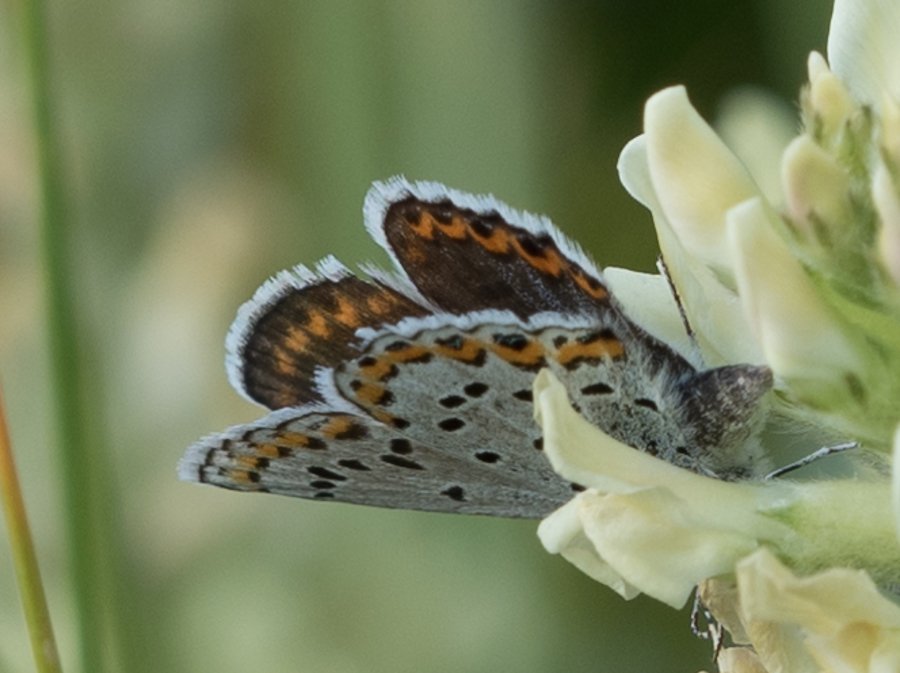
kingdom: Animalia
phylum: Arthropoda
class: Insecta
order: Lepidoptera
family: Lycaenidae
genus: Lycaeides
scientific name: Lycaeides melissa
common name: Melissa Blue
